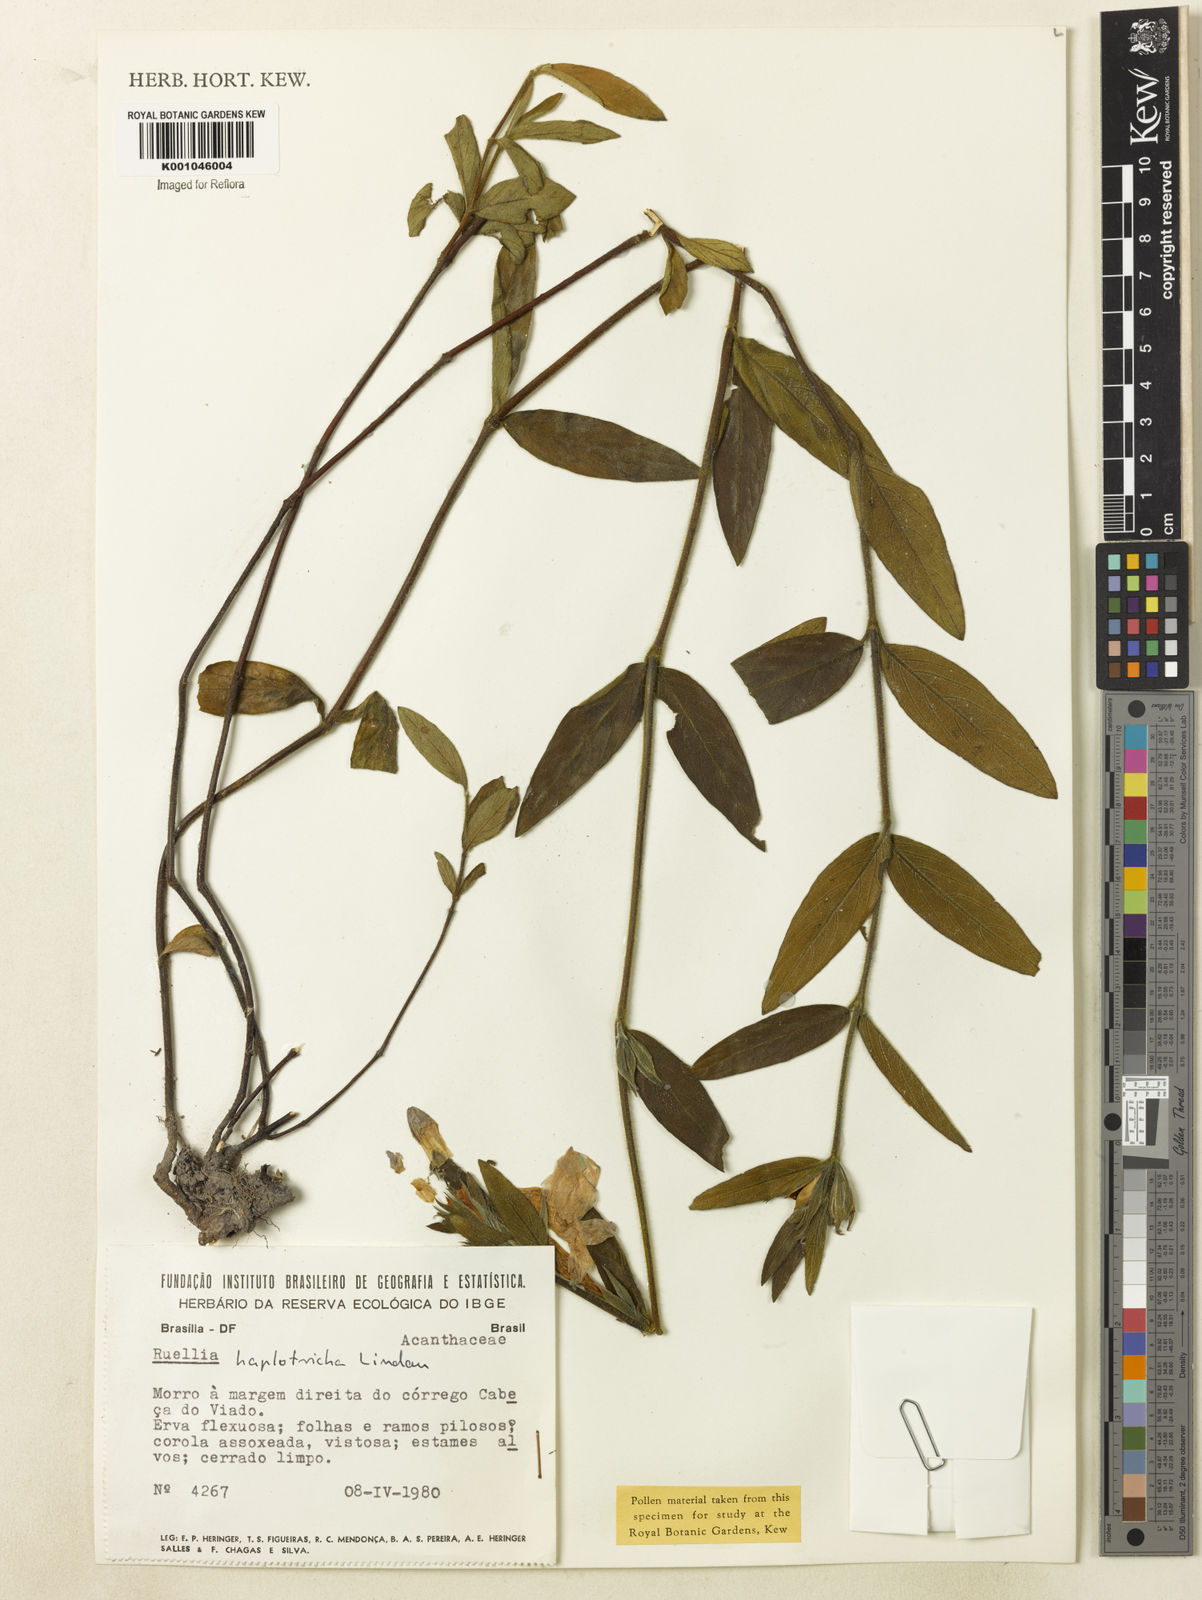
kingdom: Plantae
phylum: Tracheophyta
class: Magnoliopsida
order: Lamiales
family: Acanthaceae
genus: Ruellia
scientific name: Ruellia hapalotricha
